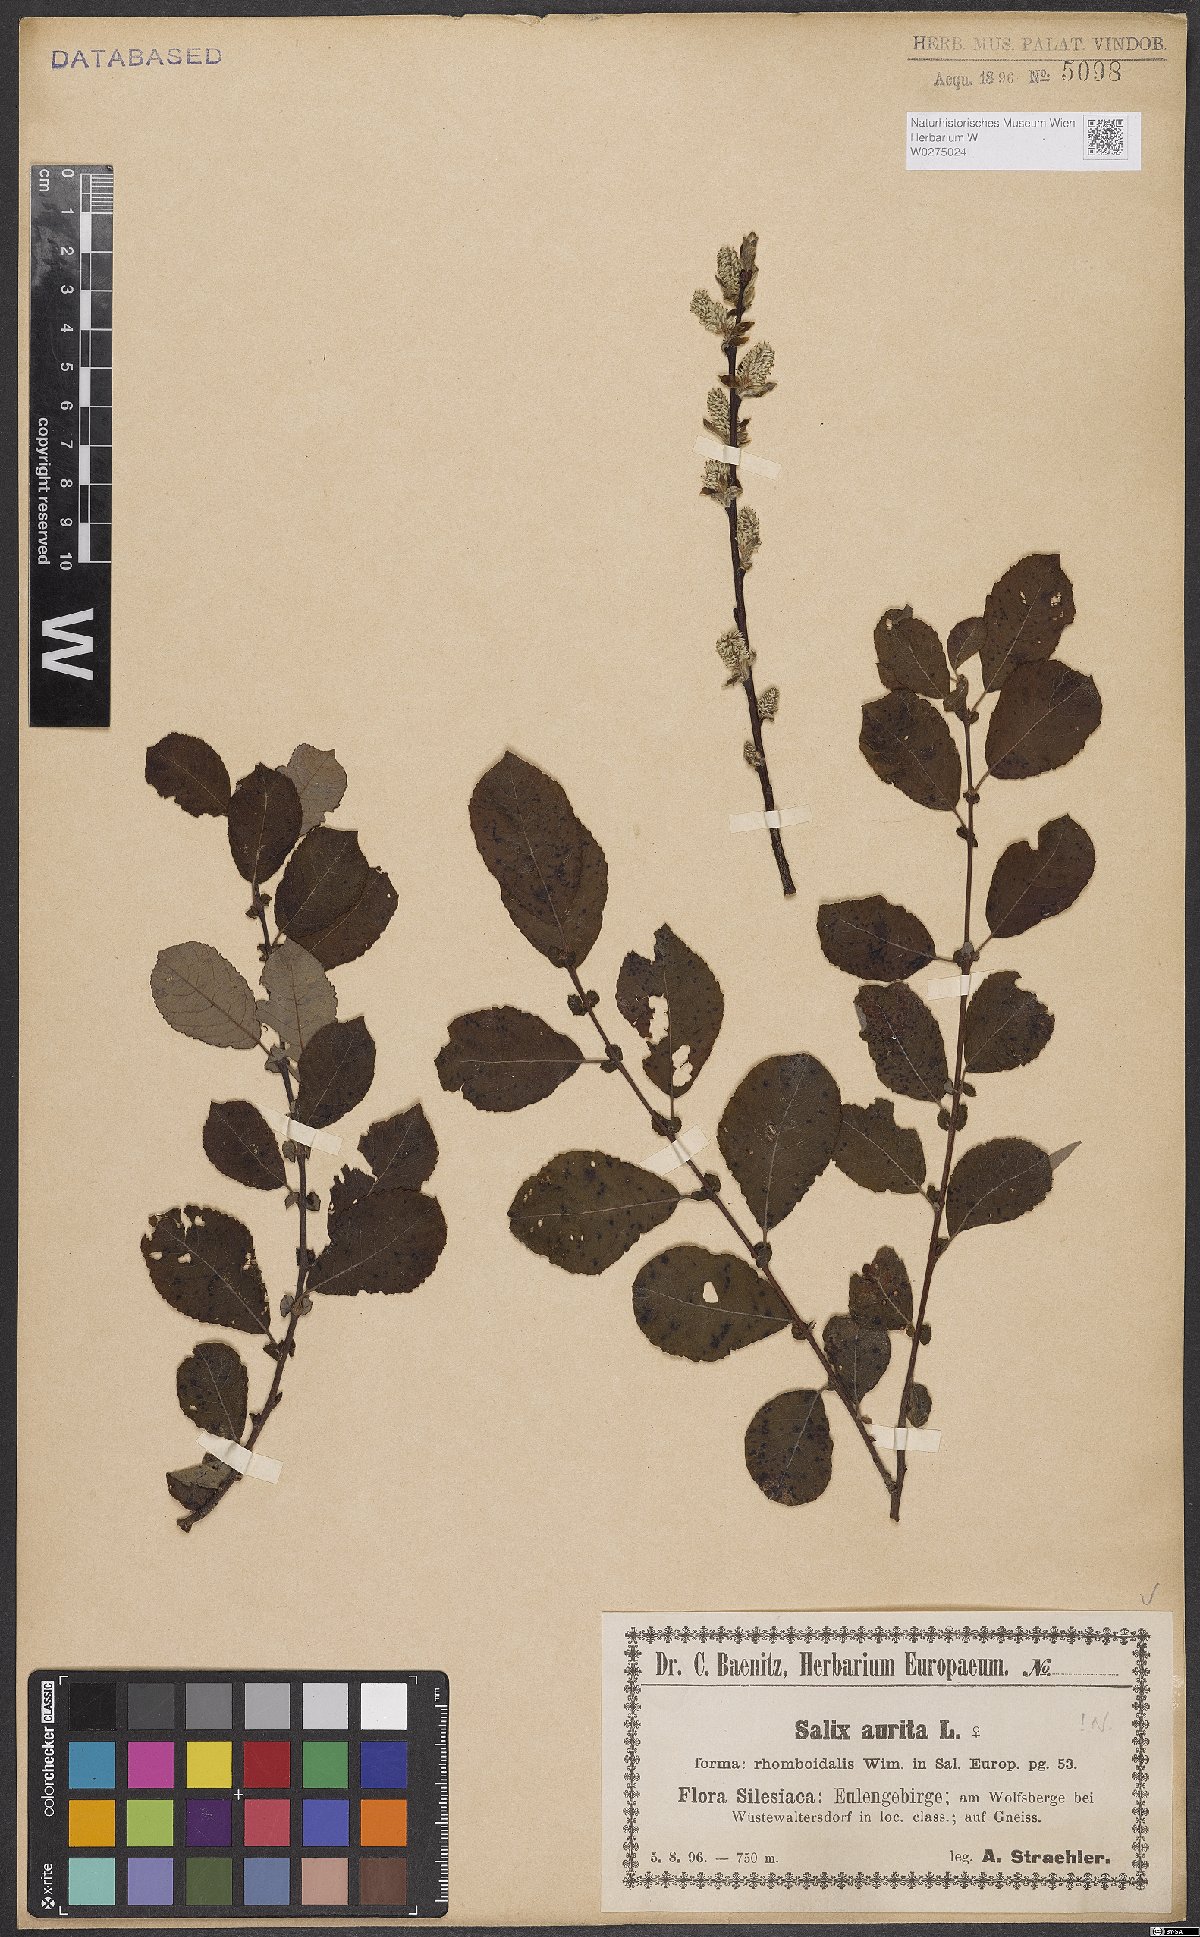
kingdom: Plantae
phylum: Tracheophyta
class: Magnoliopsida
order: Malpighiales
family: Salicaceae
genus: Salix
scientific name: Salix aurita
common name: Eared willow
